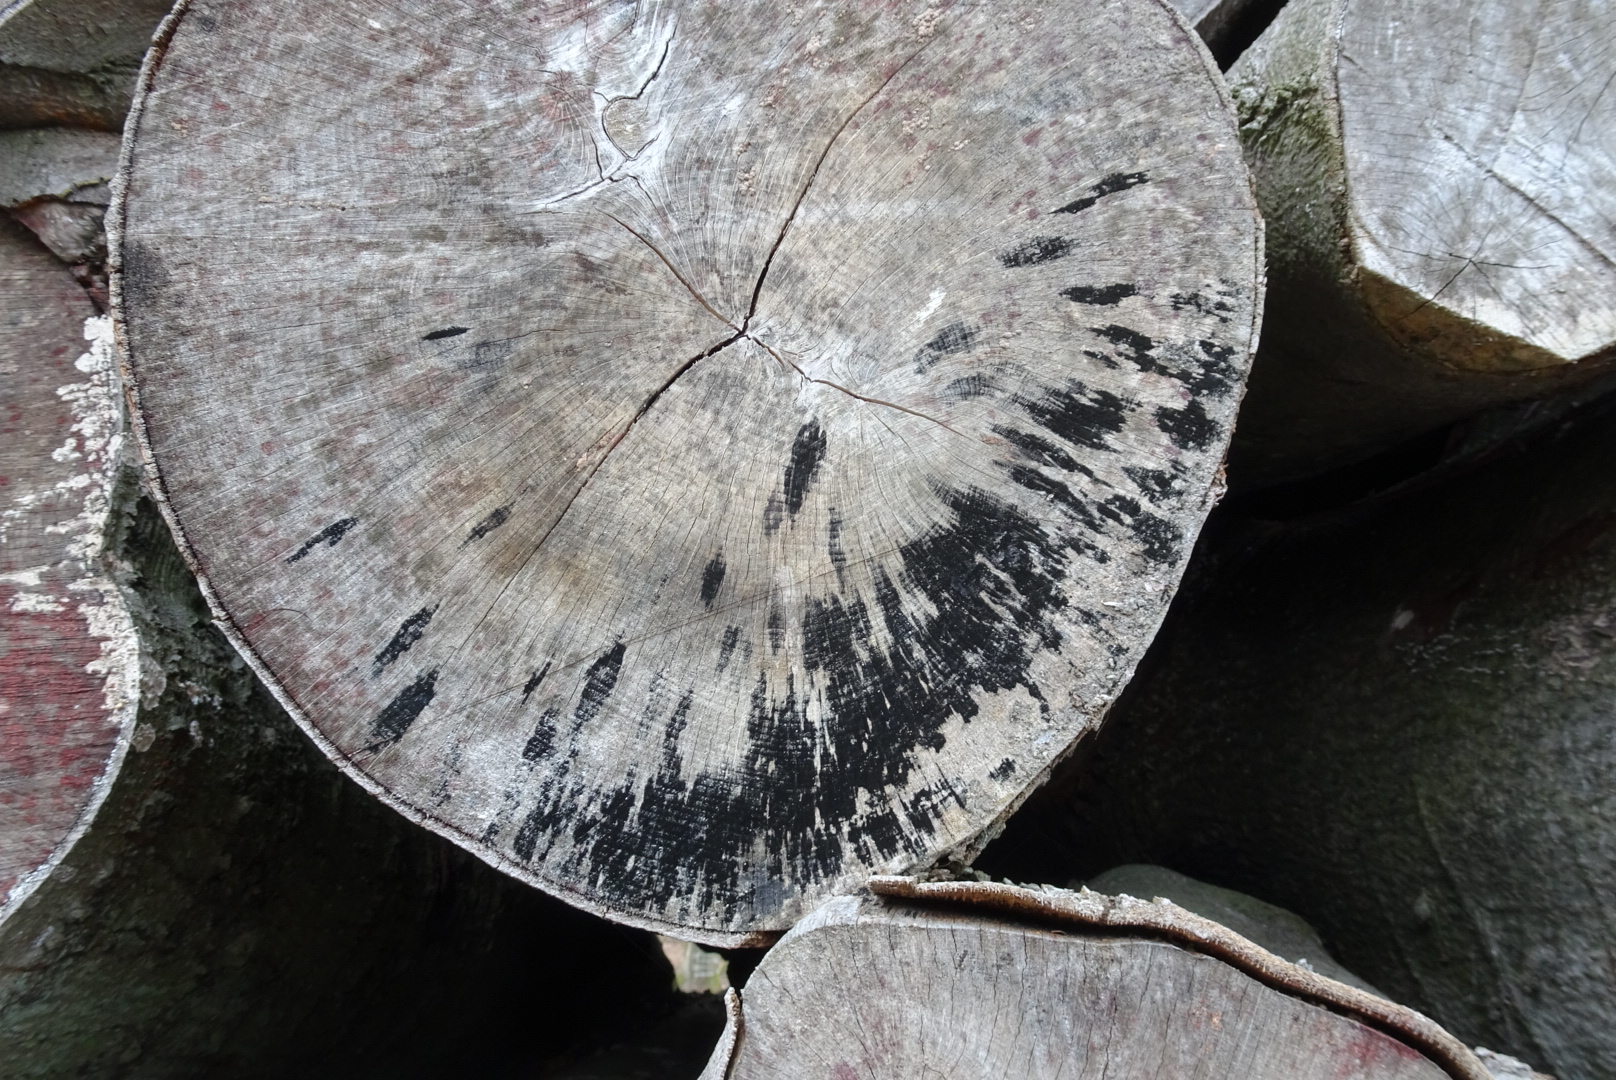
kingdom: Fungi
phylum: Ascomycota
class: Leotiomycetes
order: Helotiales
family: Helotiaceae
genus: Bispora
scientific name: Bispora pallescens
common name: måtte-snitskive
